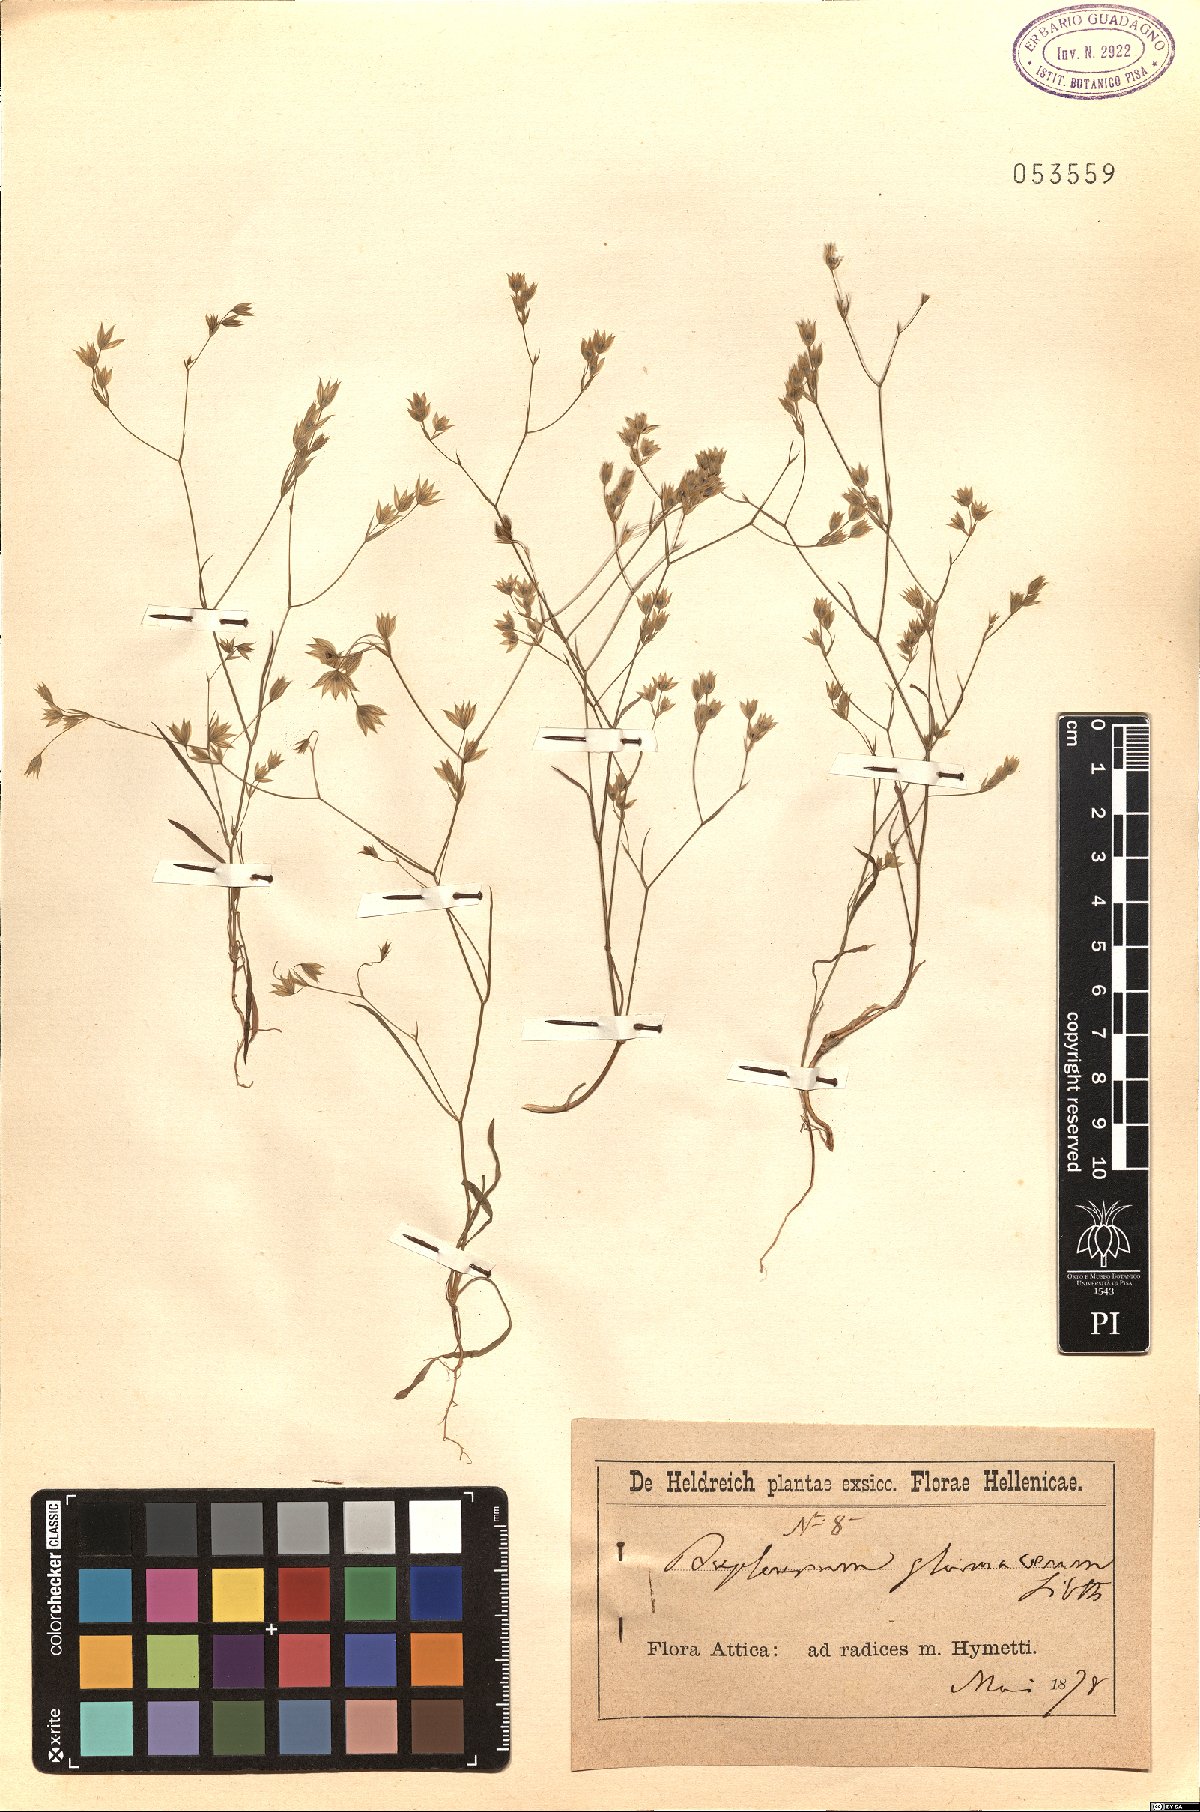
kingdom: Plantae
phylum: Tracheophyta
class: Magnoliopsida
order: Apiales
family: Apiaceae
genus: Bupleurum
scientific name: Bupleurum glumaceum
